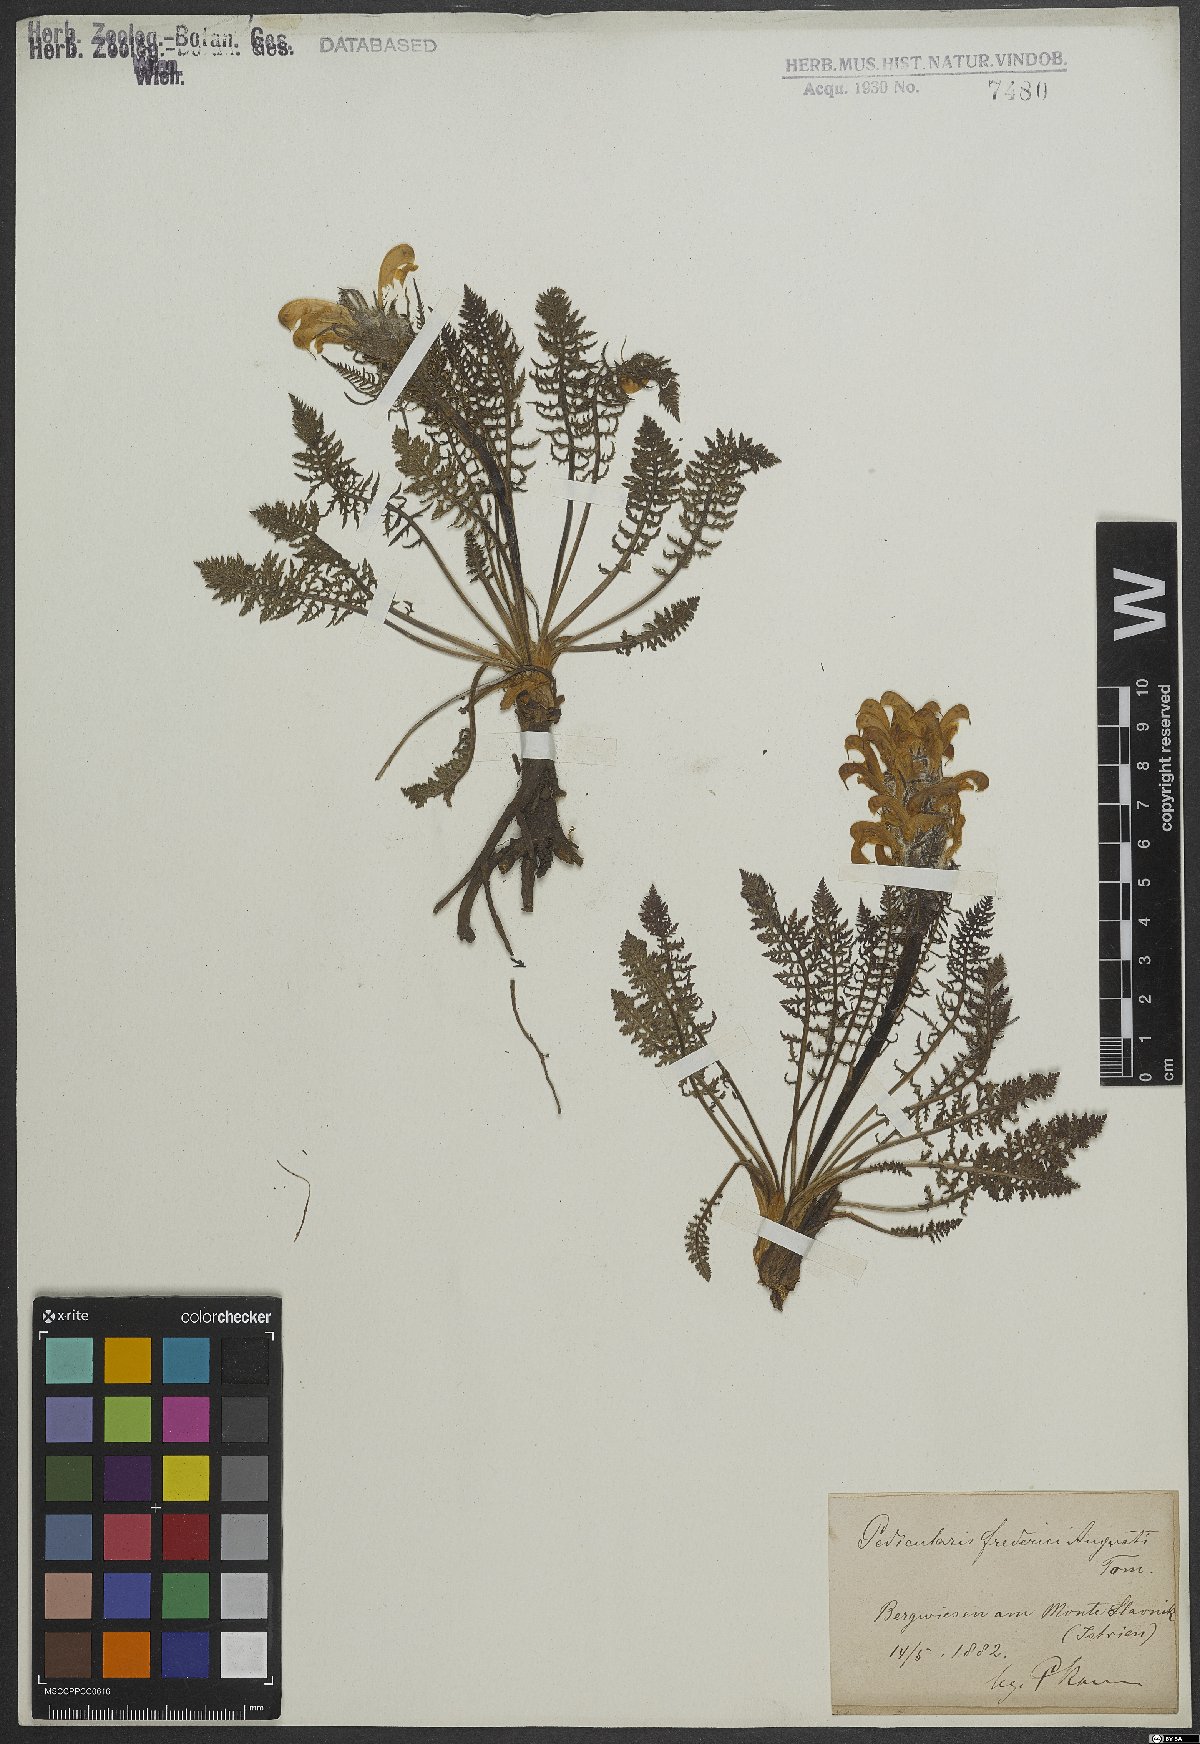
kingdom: Plantae
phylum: Tracheophyta
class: Magnoliopsida
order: Lamiales
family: Orobanchaceae
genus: Pedicularis
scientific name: Pedicularis friderici-augusti
